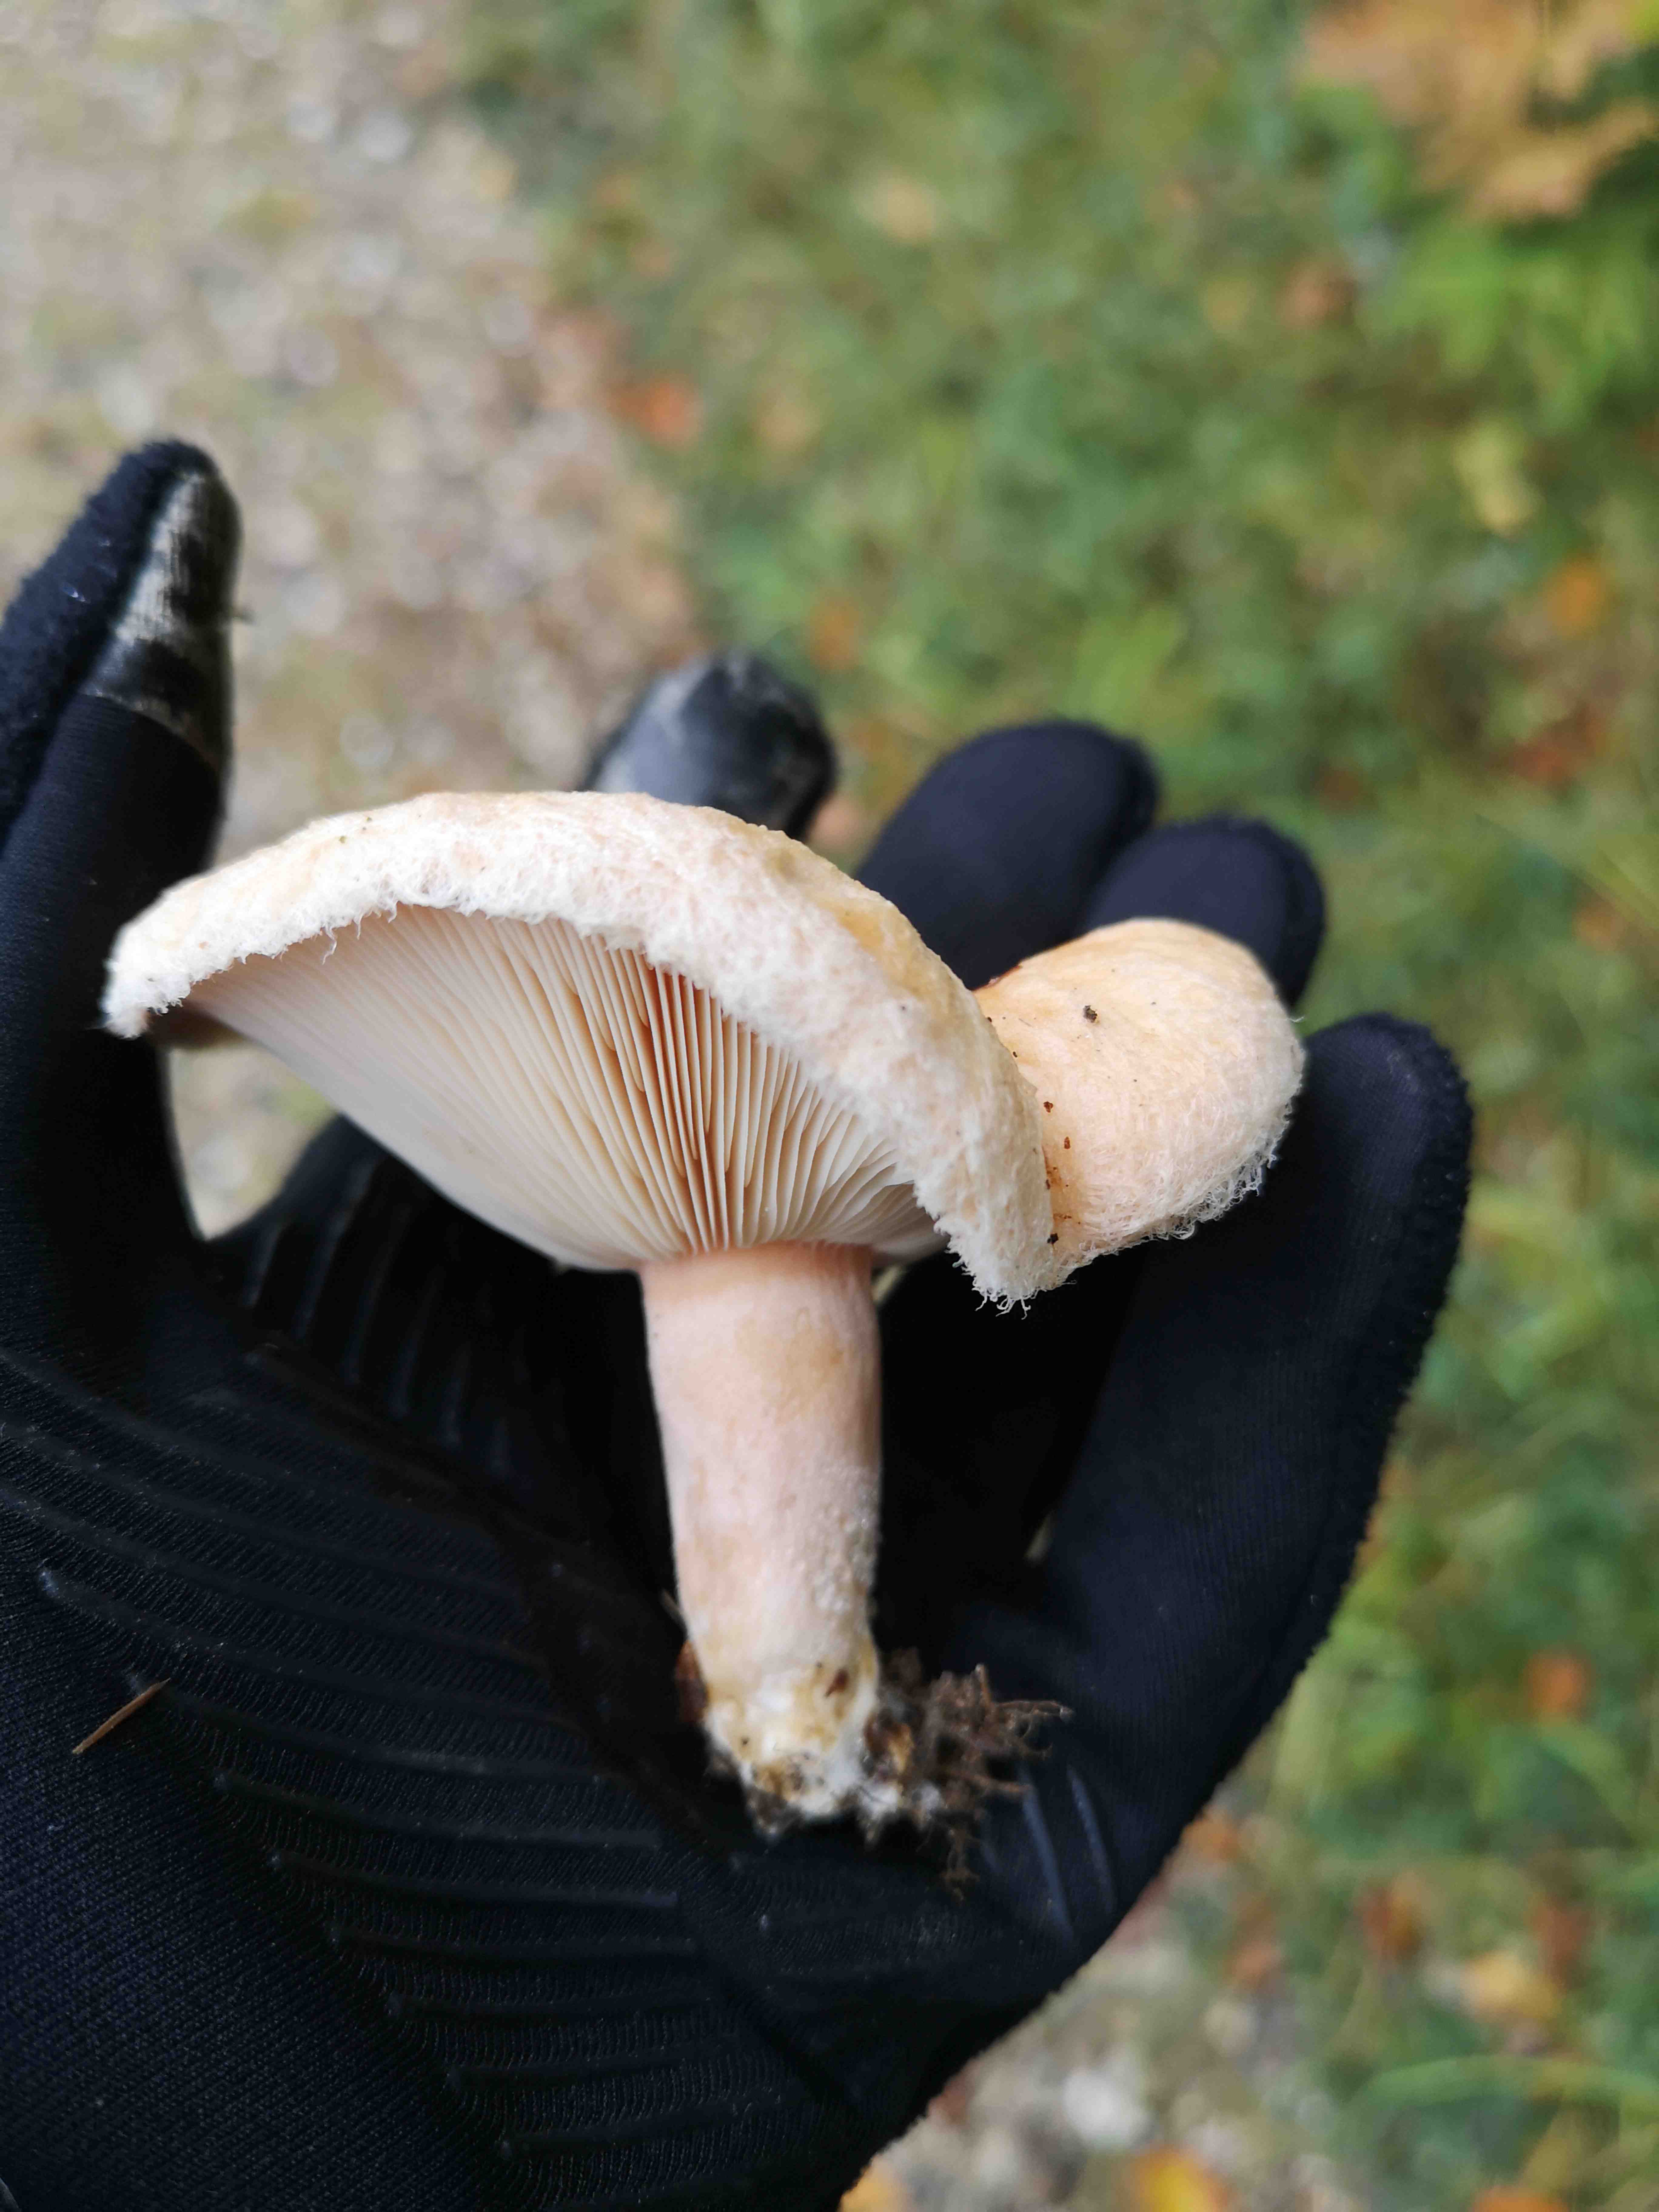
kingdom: Fungi
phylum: Basidiomycota
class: Agaricomycetes
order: Russulales
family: Russulaceae
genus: Lactarius
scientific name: Lactarius pubescens
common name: dunet mælkehat
